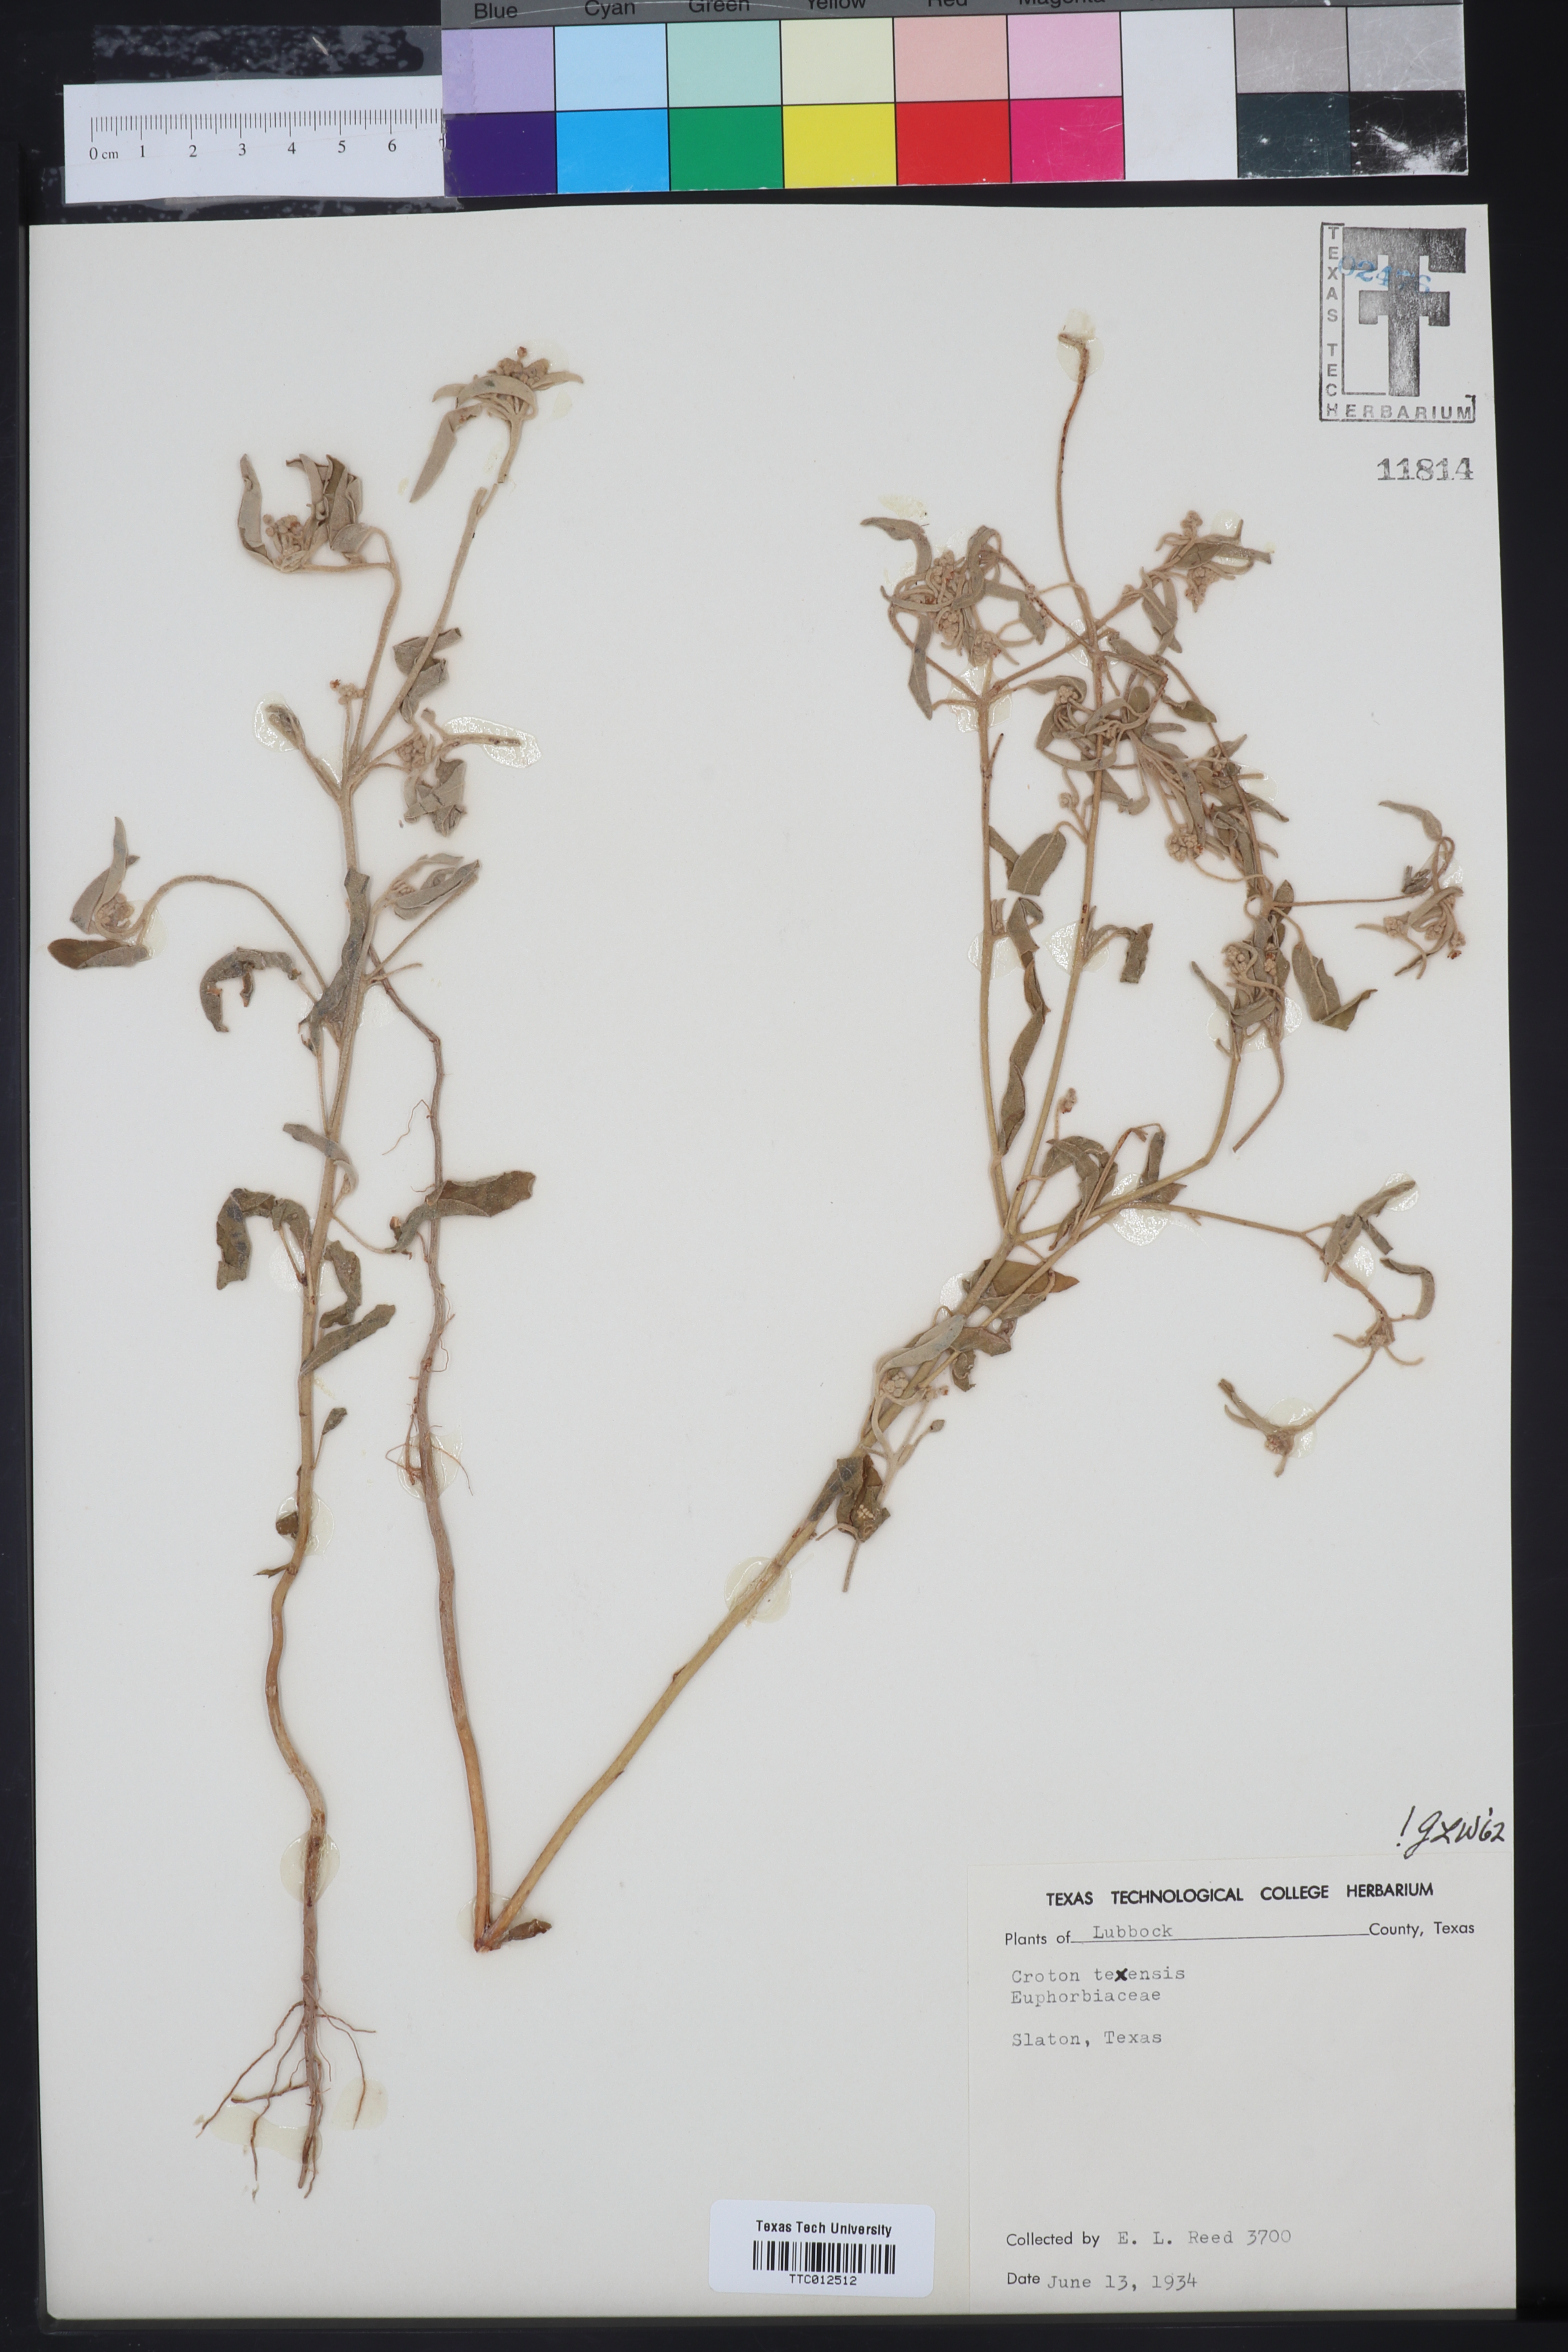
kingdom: Plantae
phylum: Tracheophyta
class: Magnoliopsida
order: Malpighiales
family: Euphorbiaceae
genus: Croton
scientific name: Croton texensis
